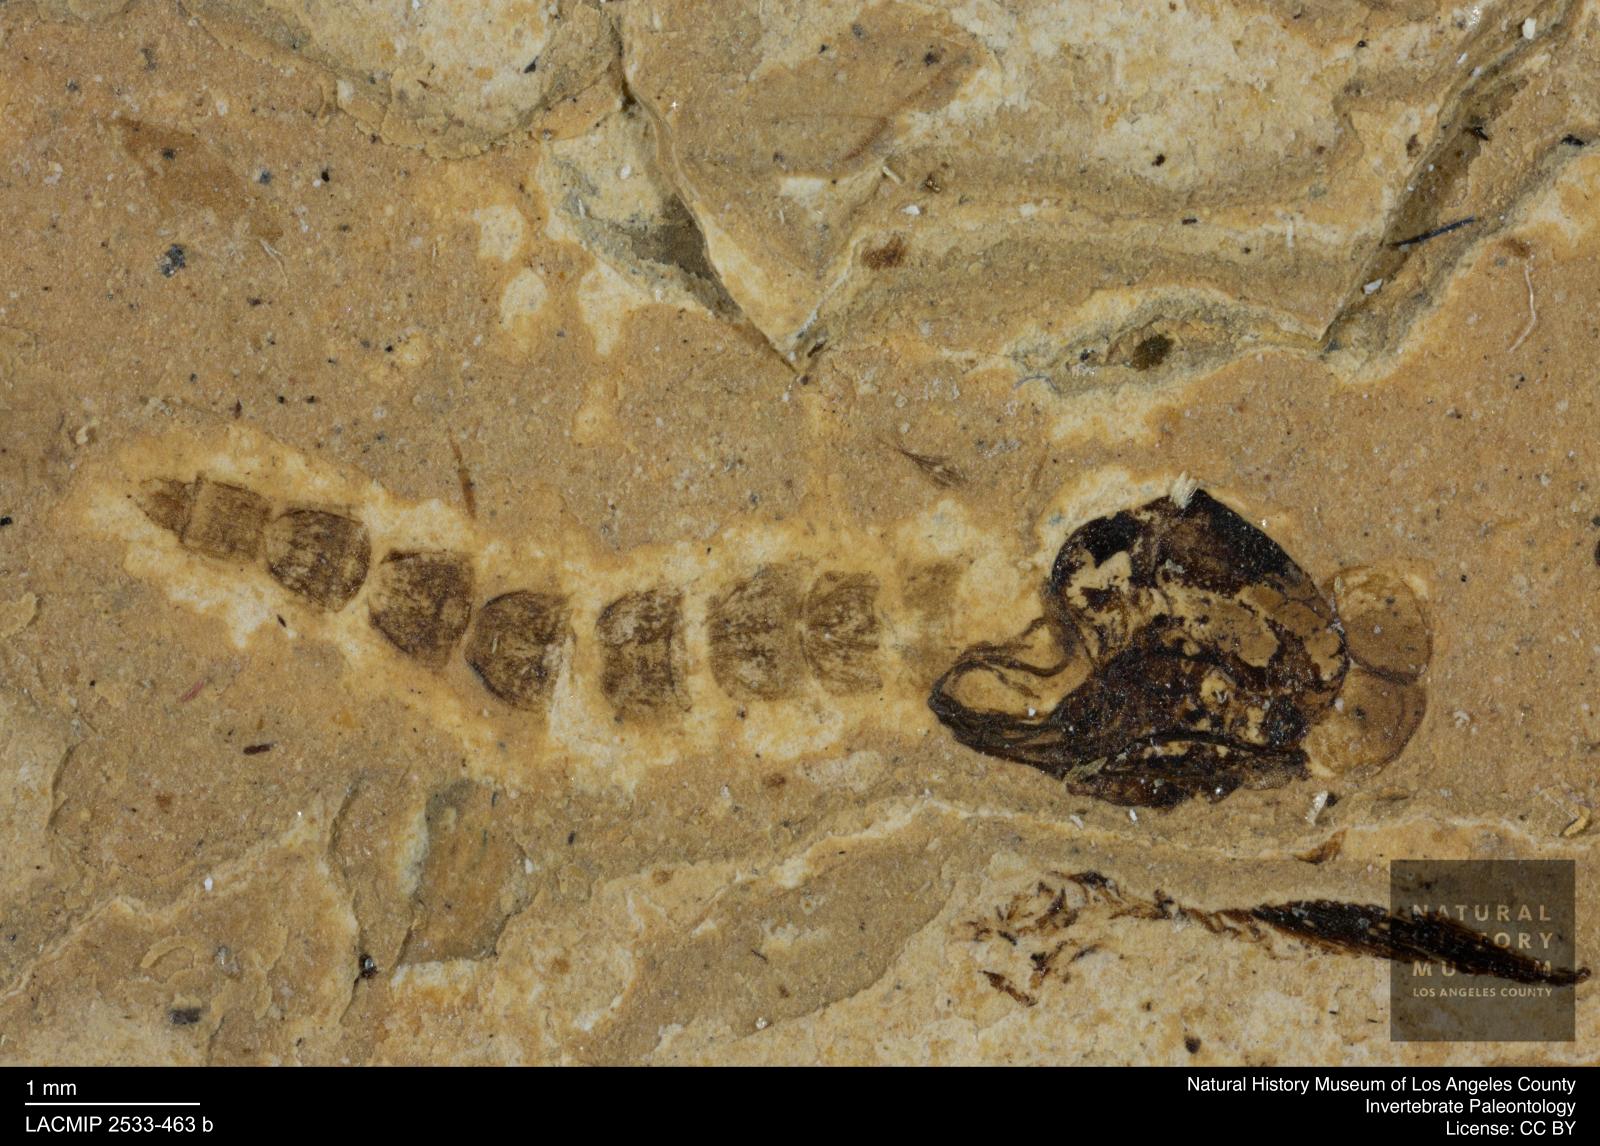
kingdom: Animalia
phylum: Arthropoda
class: Insecta
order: Diptera
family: Chironomidae
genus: Tanypus
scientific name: Tanypus
